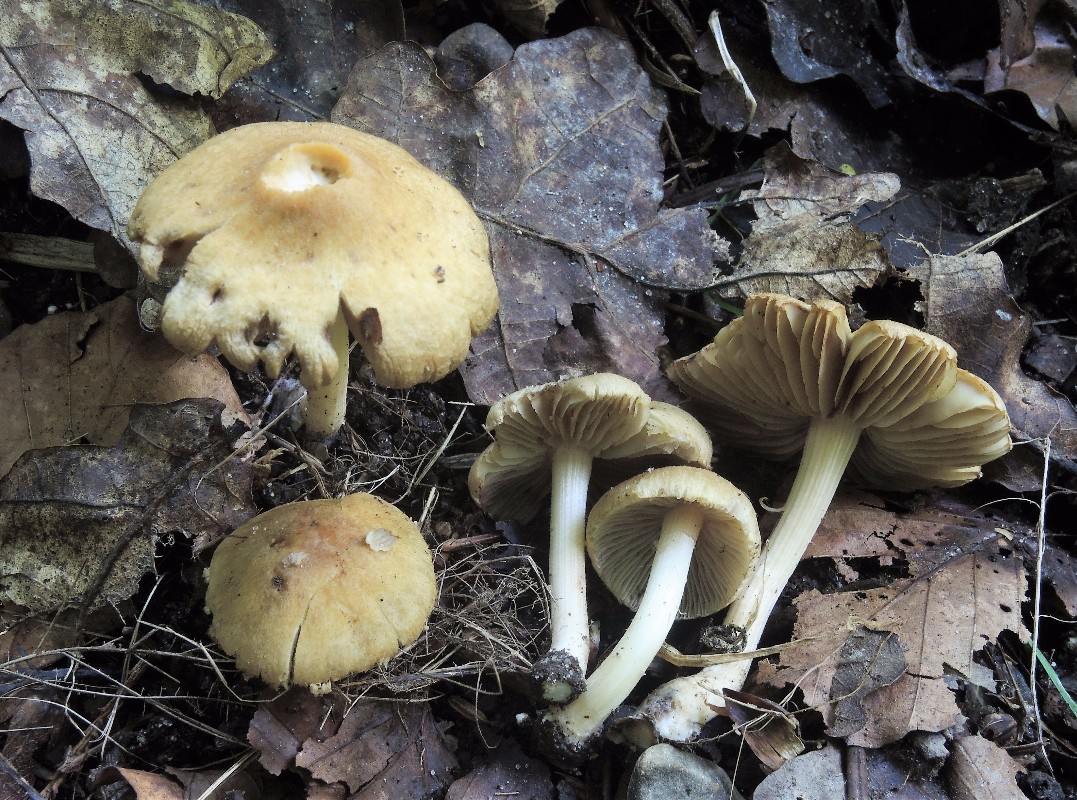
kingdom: Fungi
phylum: Basidiomycota
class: Agaricomycetes
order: Agaricales
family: Inocybaceae
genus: Inocybe
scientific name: Inocybe hirtella
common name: mandel-trævlhat
